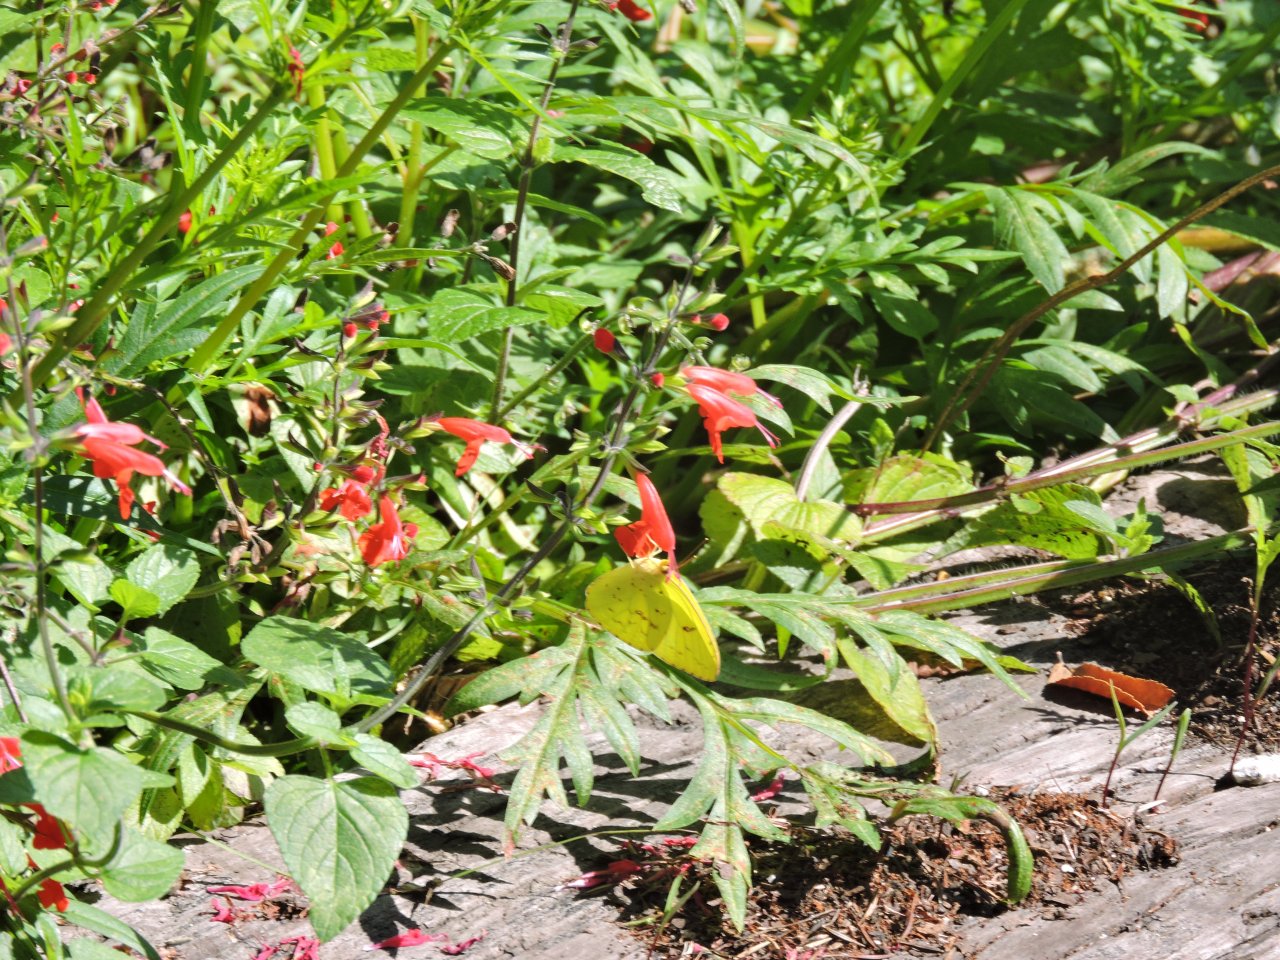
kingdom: Animalia
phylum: Arthropoda
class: Insecta
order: Lepidoptera
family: Pieridae
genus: Phoebis
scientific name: Phoebis sennae
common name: Cloudless Sulphur
